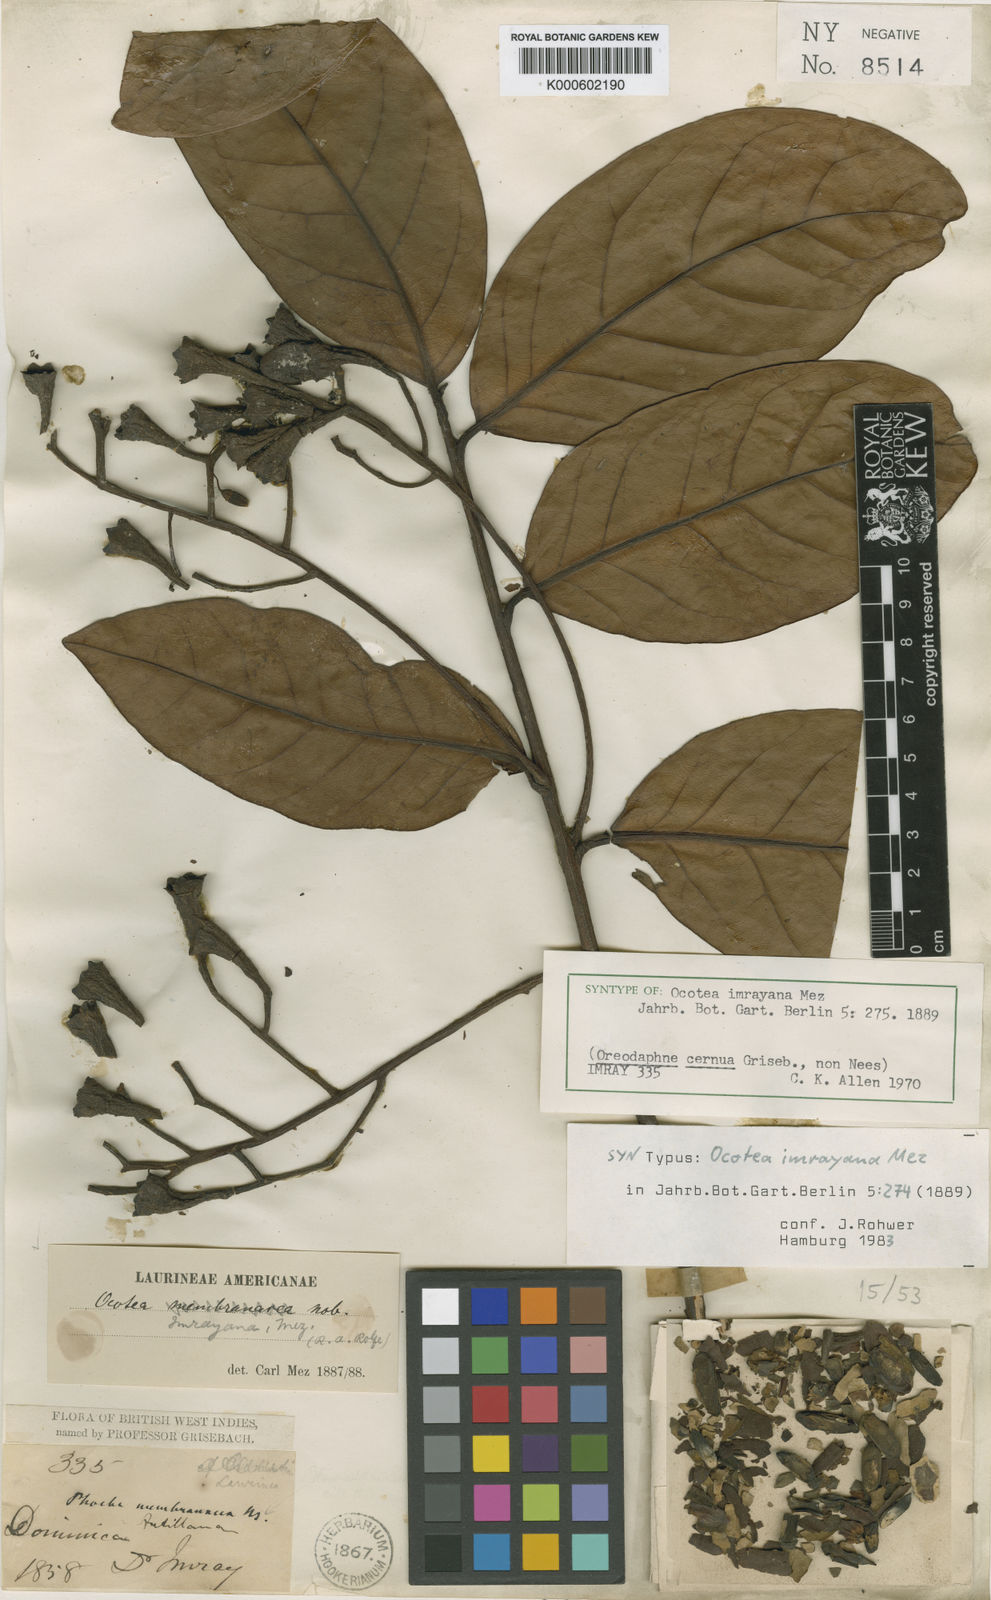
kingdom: Plantae
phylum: Tracheophyta
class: Magnoliopsida
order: Laurales
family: Lauraceae
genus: Ocotea
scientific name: Ocotea imrayana
